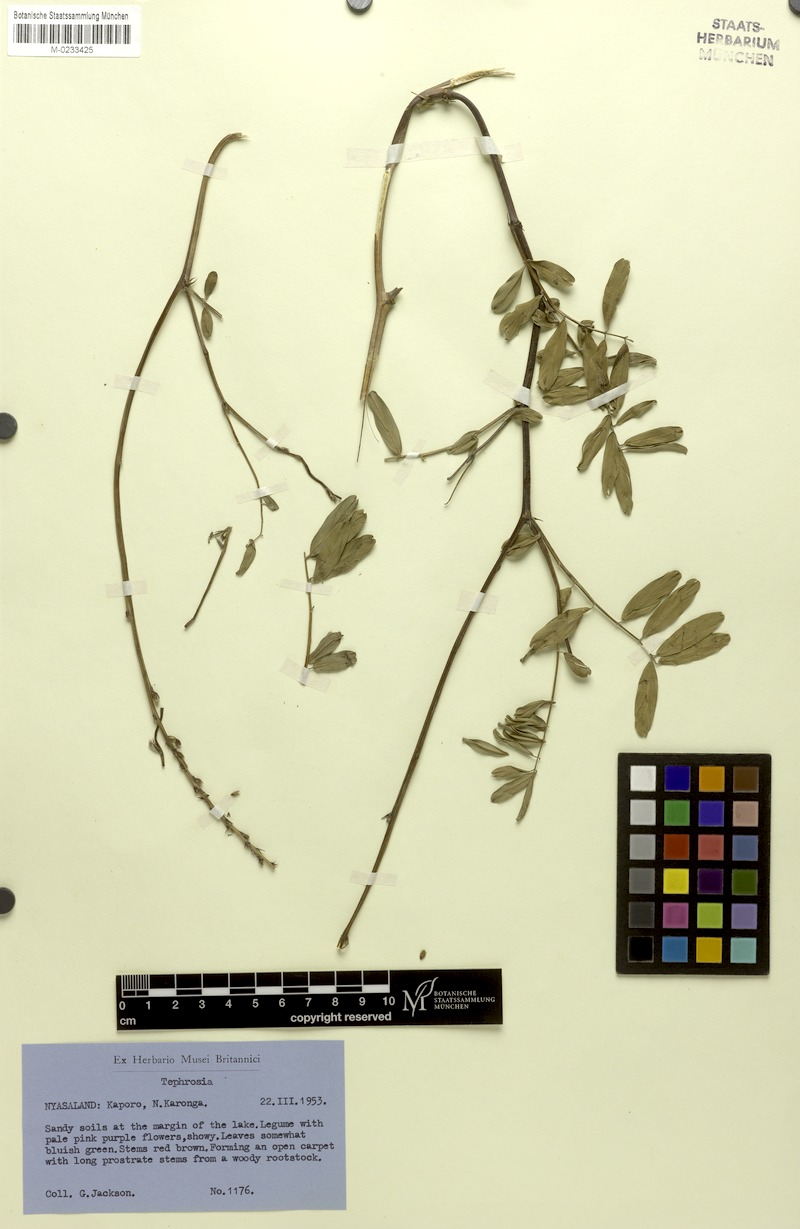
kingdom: Plantae
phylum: Tracheophyta
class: Magnoliopsida
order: Fabales
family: Fabaceae
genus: Tephrosia
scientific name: Tephrosia reptans
